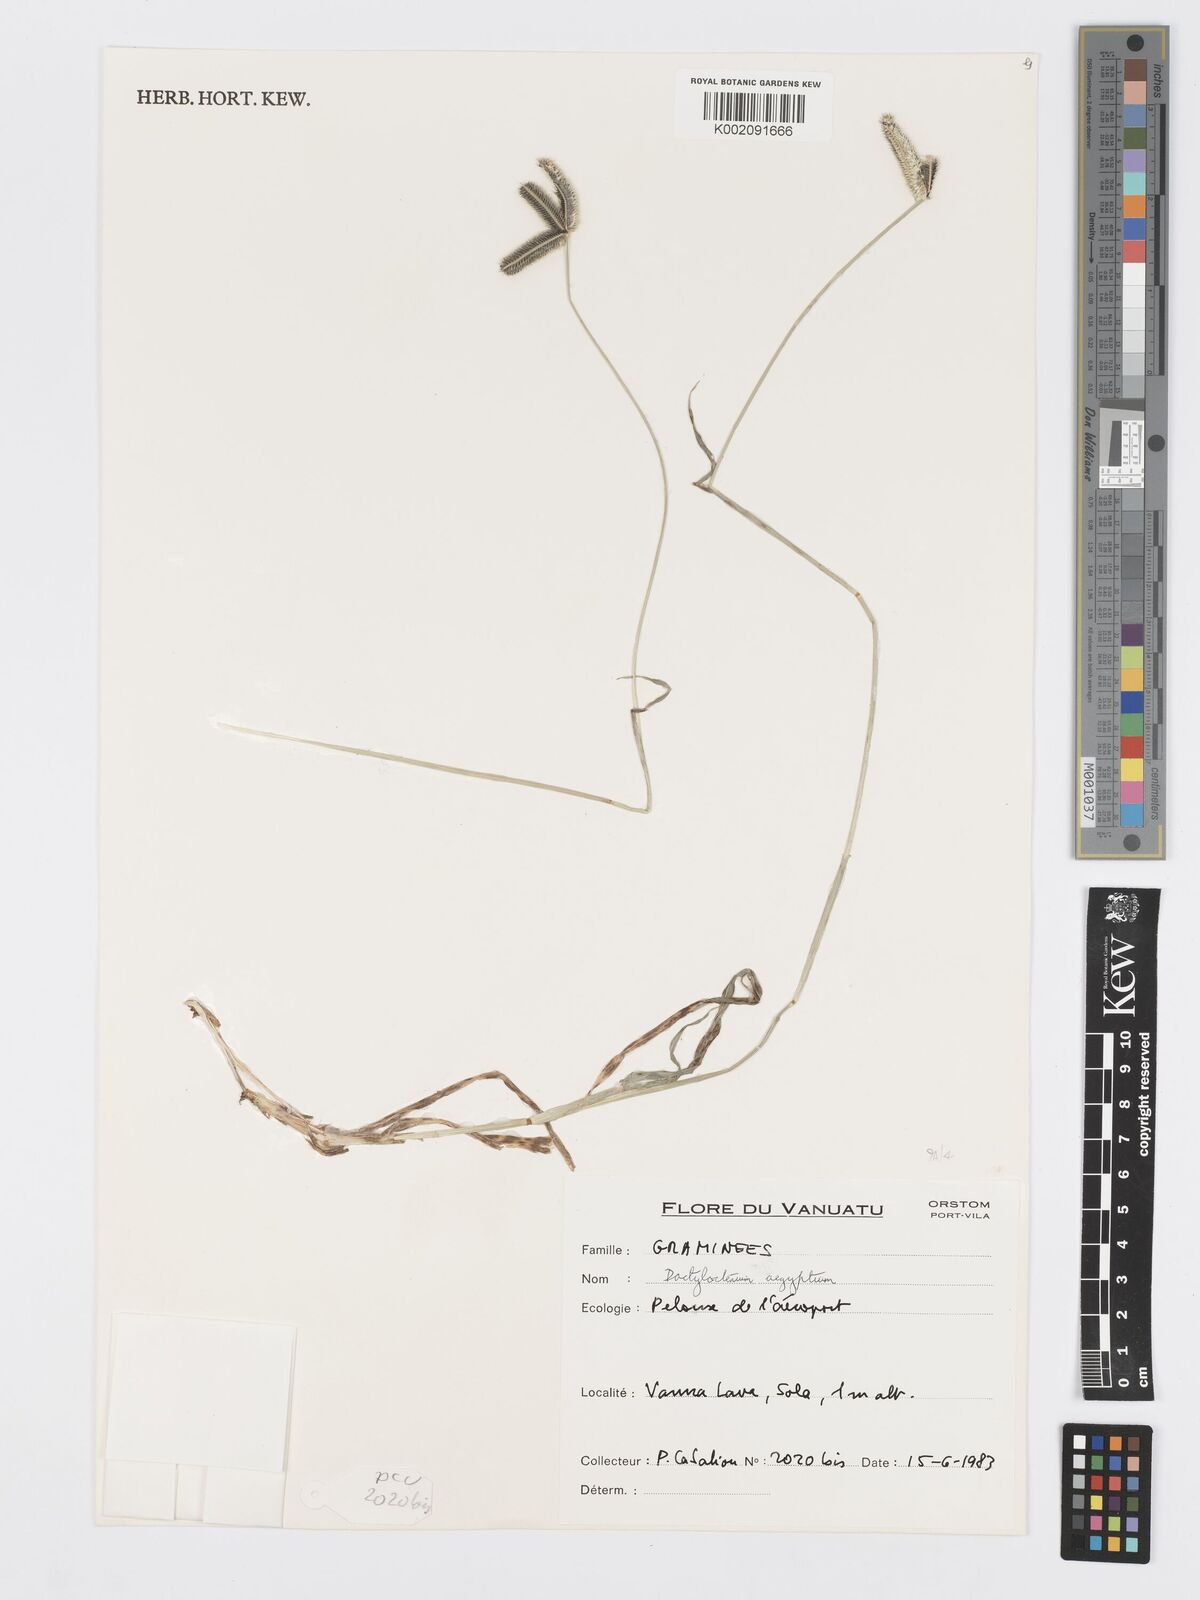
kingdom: Plantae
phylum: Tracheophyta
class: Liliopsida
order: Poales
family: Poaceae
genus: Dactyloctenium
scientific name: Dactyloctenium aegyptium
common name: Egyptian grass
